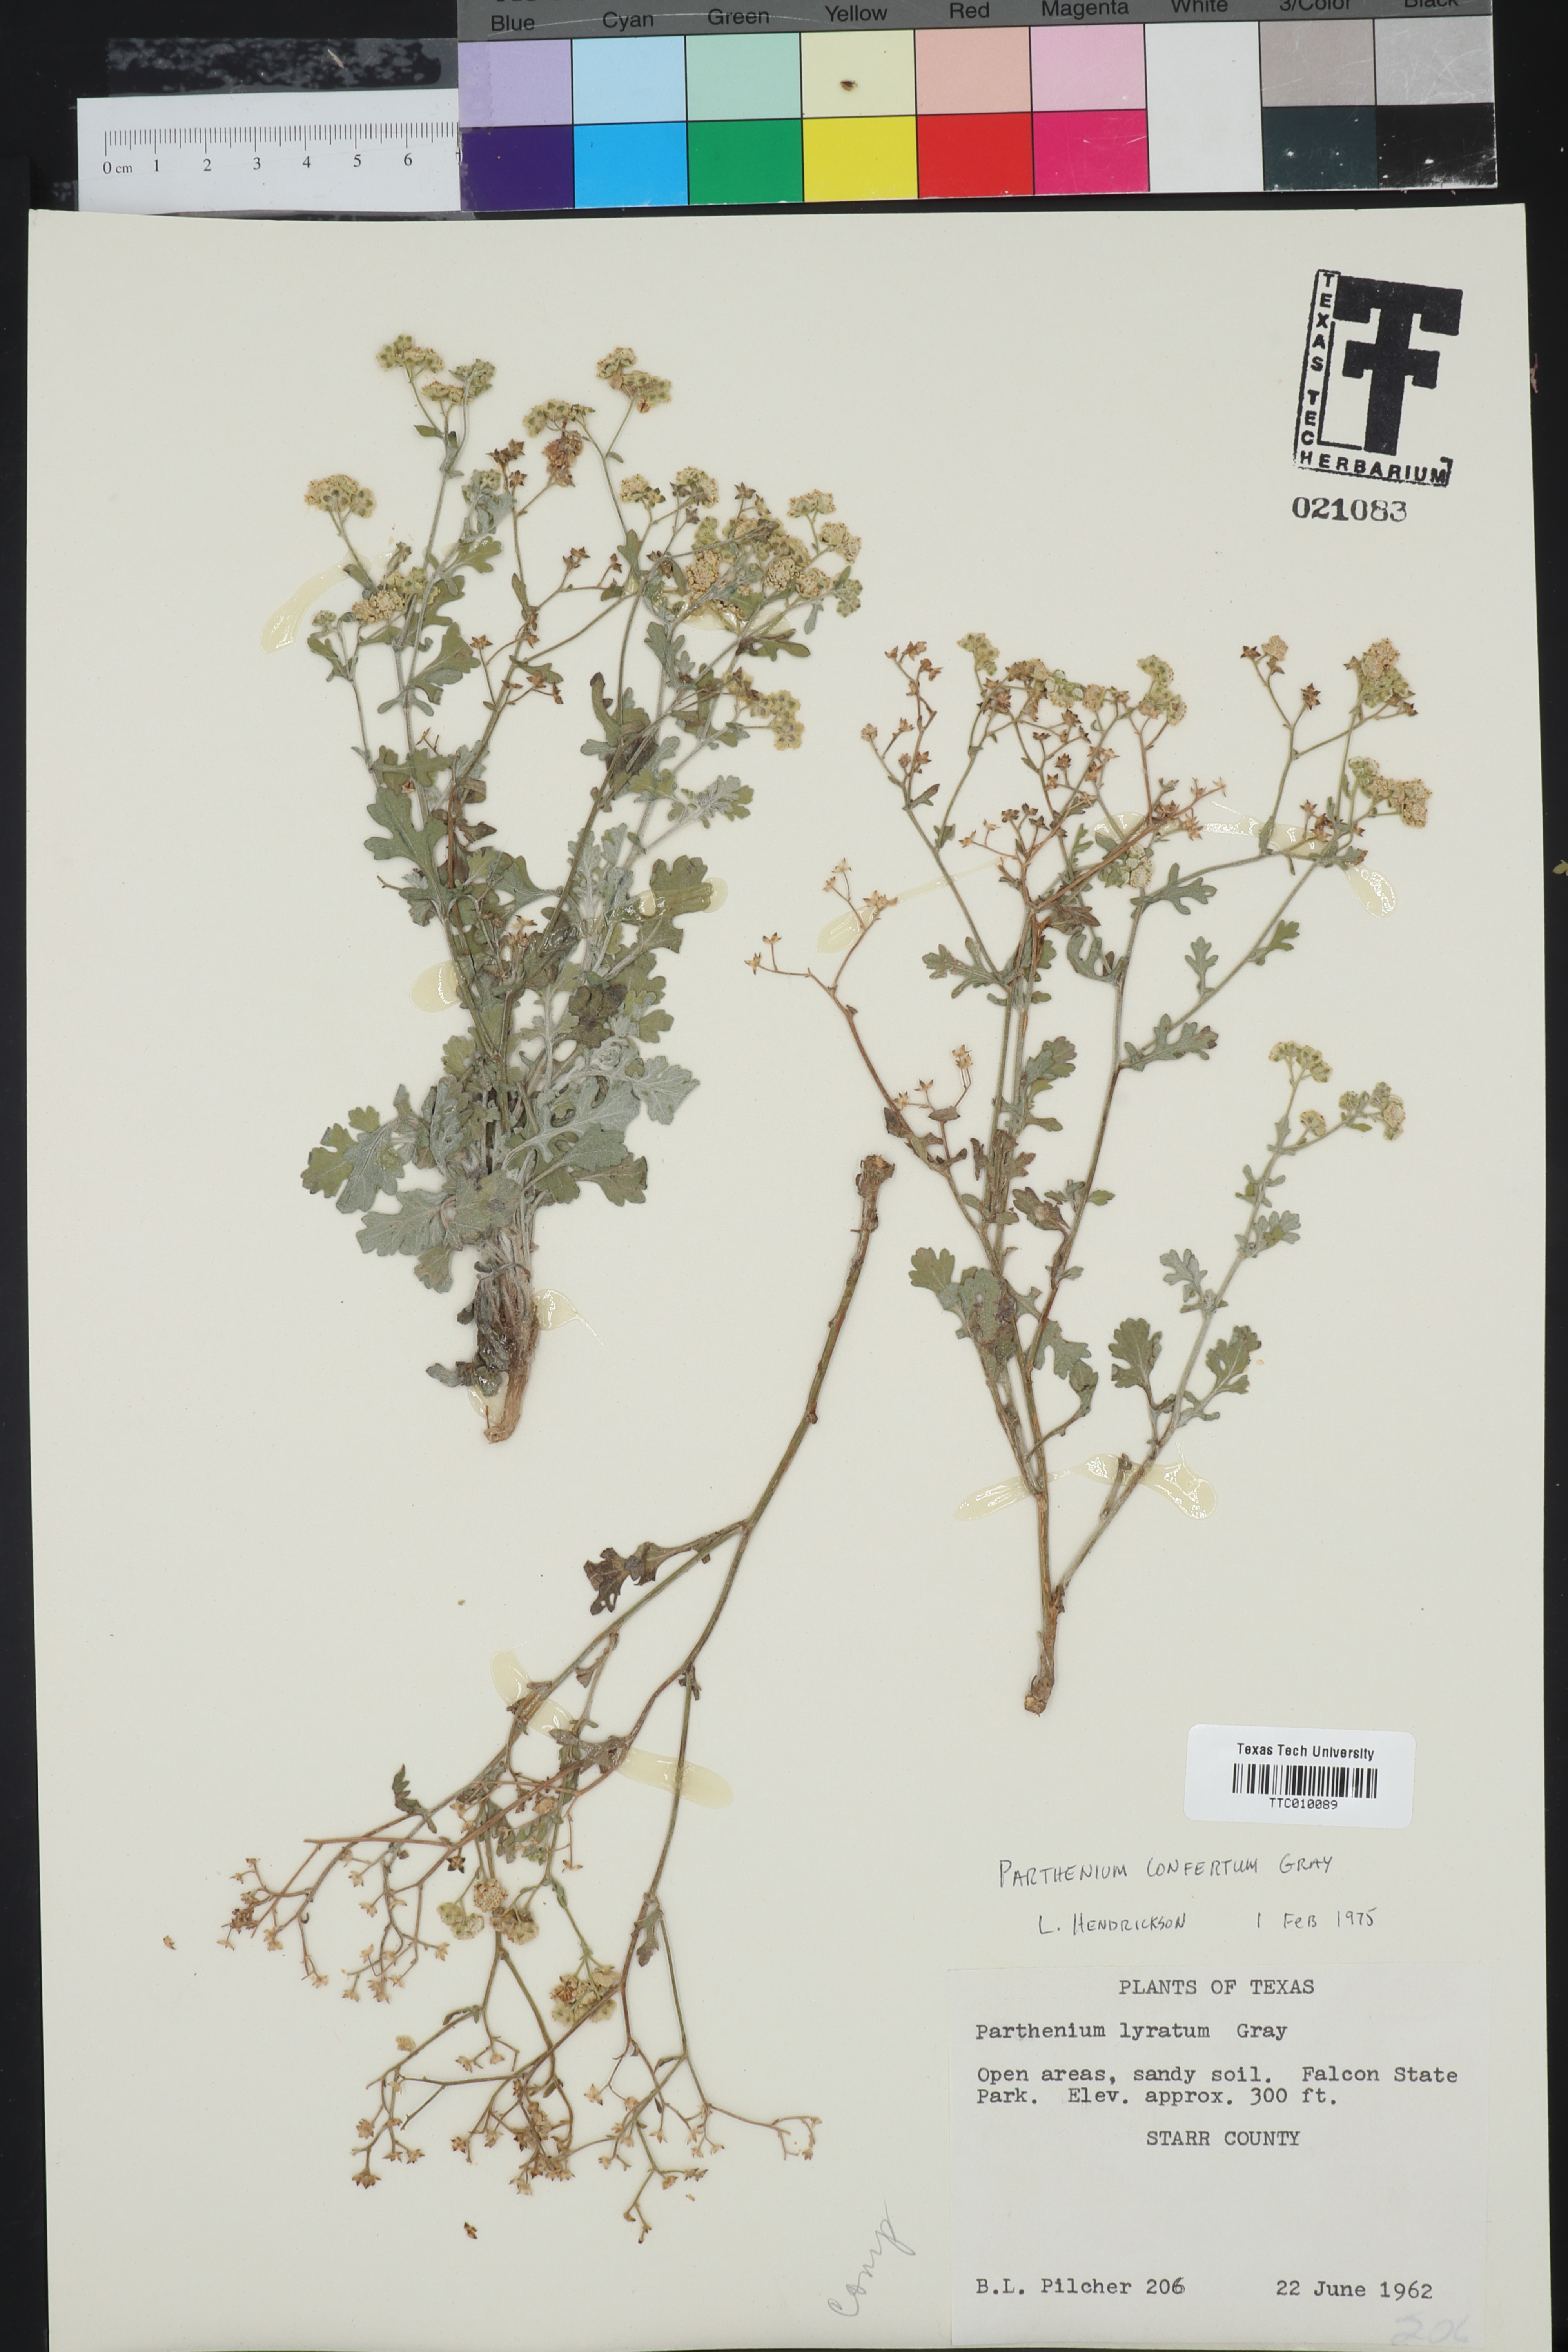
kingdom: Plantae
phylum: Tracheophyta
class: Magnoliopsida
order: Asterales
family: Asteraceae
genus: Parthenium
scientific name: Parthenium confertum
